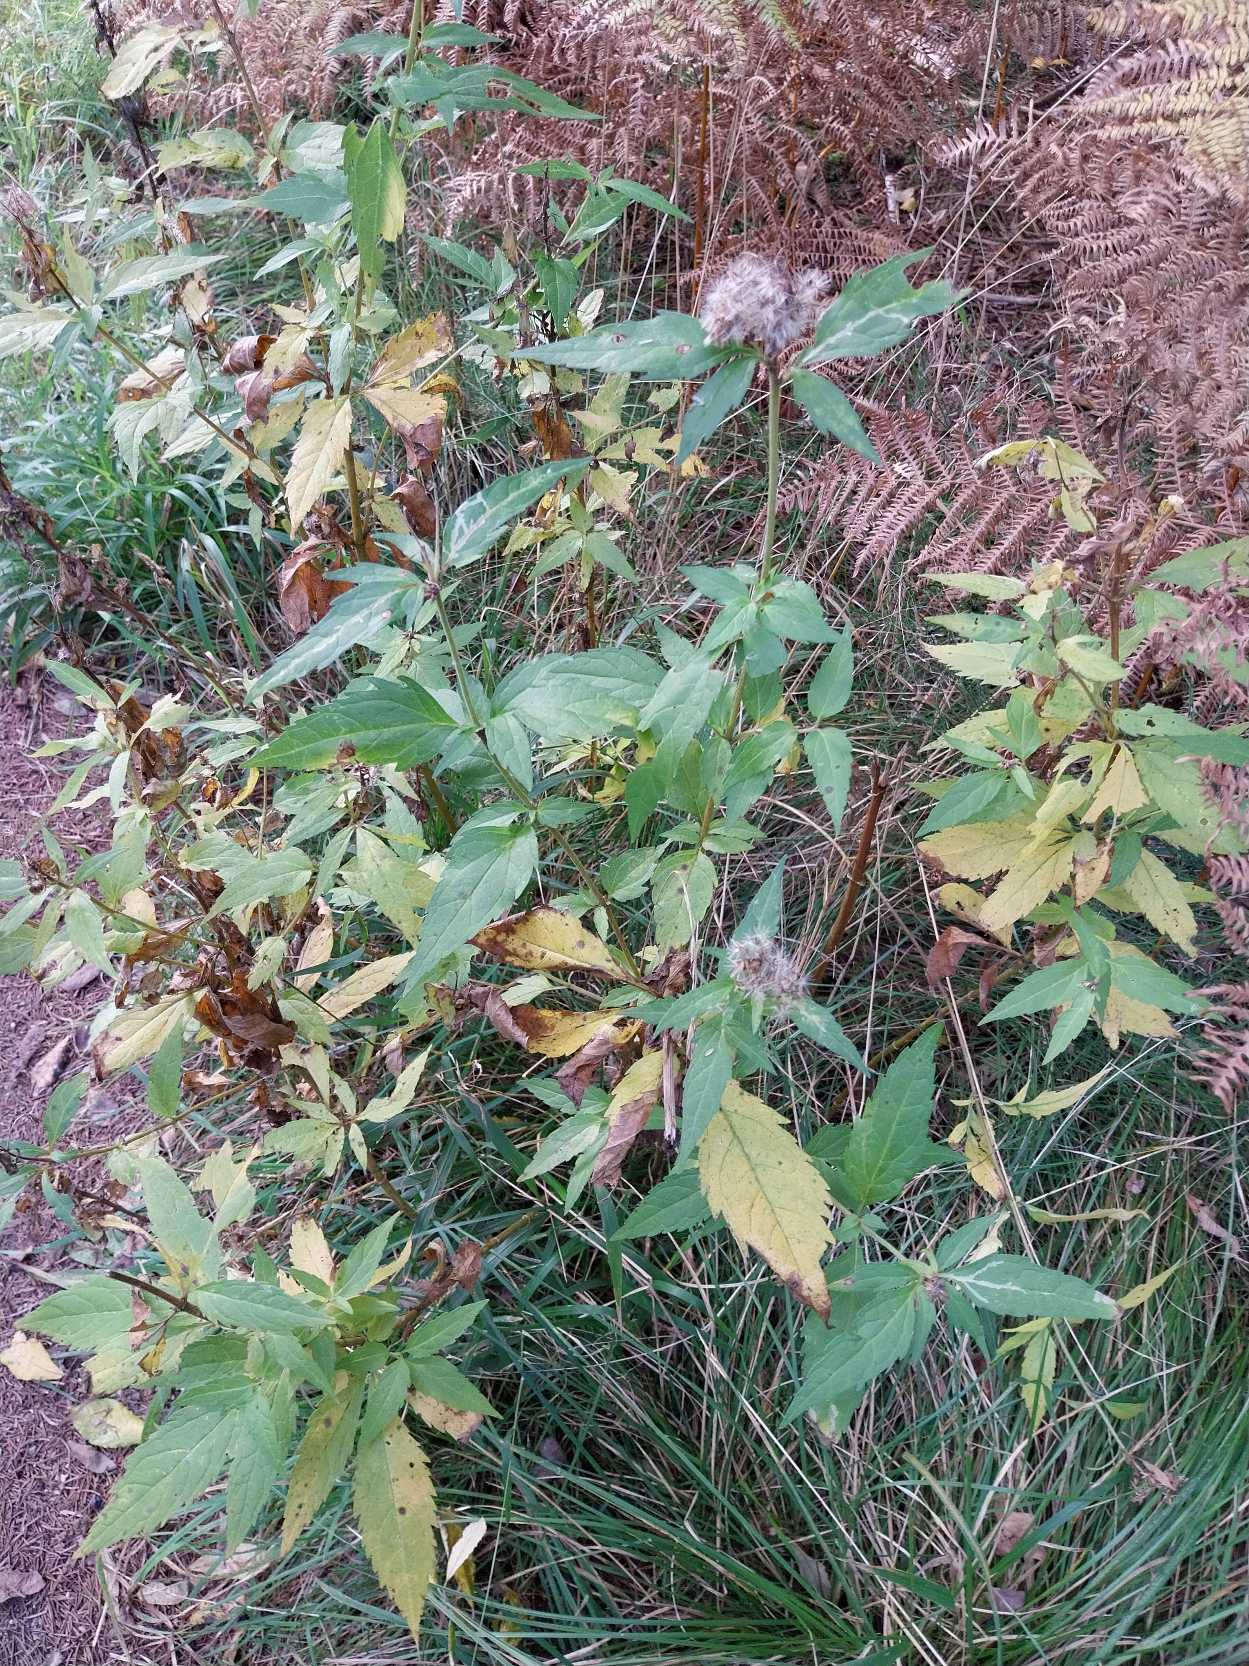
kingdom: Plantae
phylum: Tracheophyta
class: Magnoliopsida
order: Asterales
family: Asteraceae
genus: Eupatorium
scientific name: Eupatorium cannabinum
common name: Hjortetrøst
